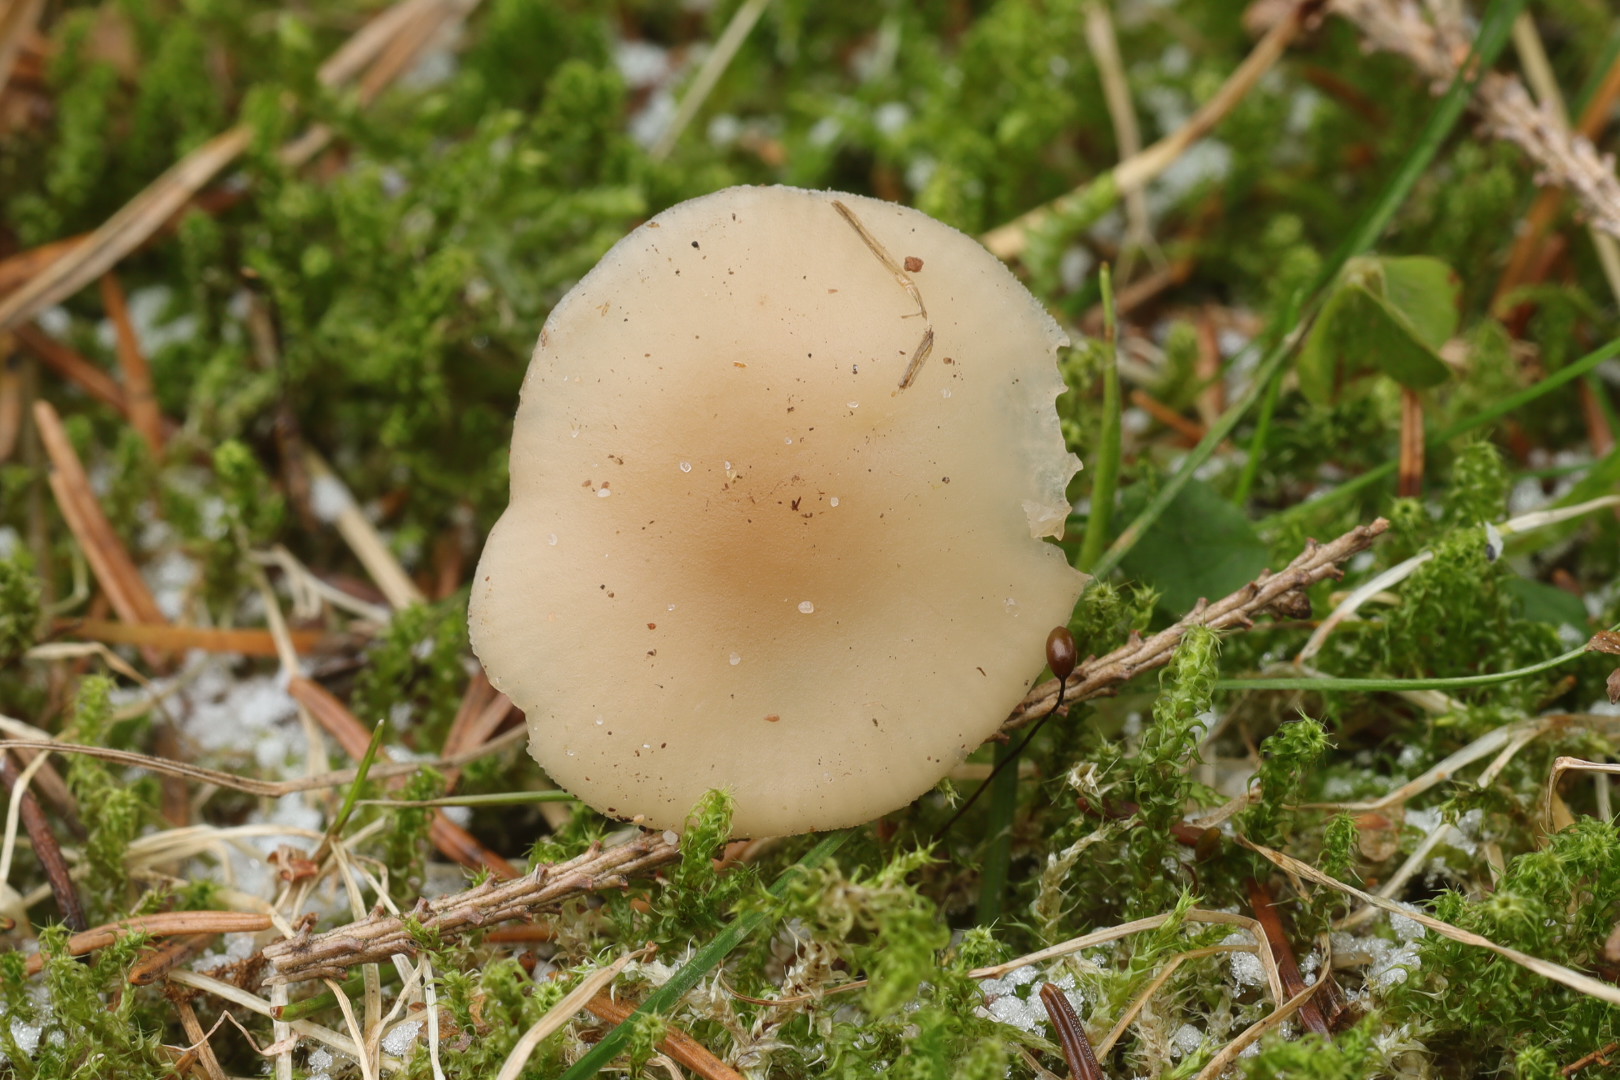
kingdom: Fungi
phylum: Basidiomycota
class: Agaricomycetes
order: Agaricales
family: Tricholomataceae
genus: Clitocybe
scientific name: Clitocybe fragrans
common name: vellugtende tragthat
